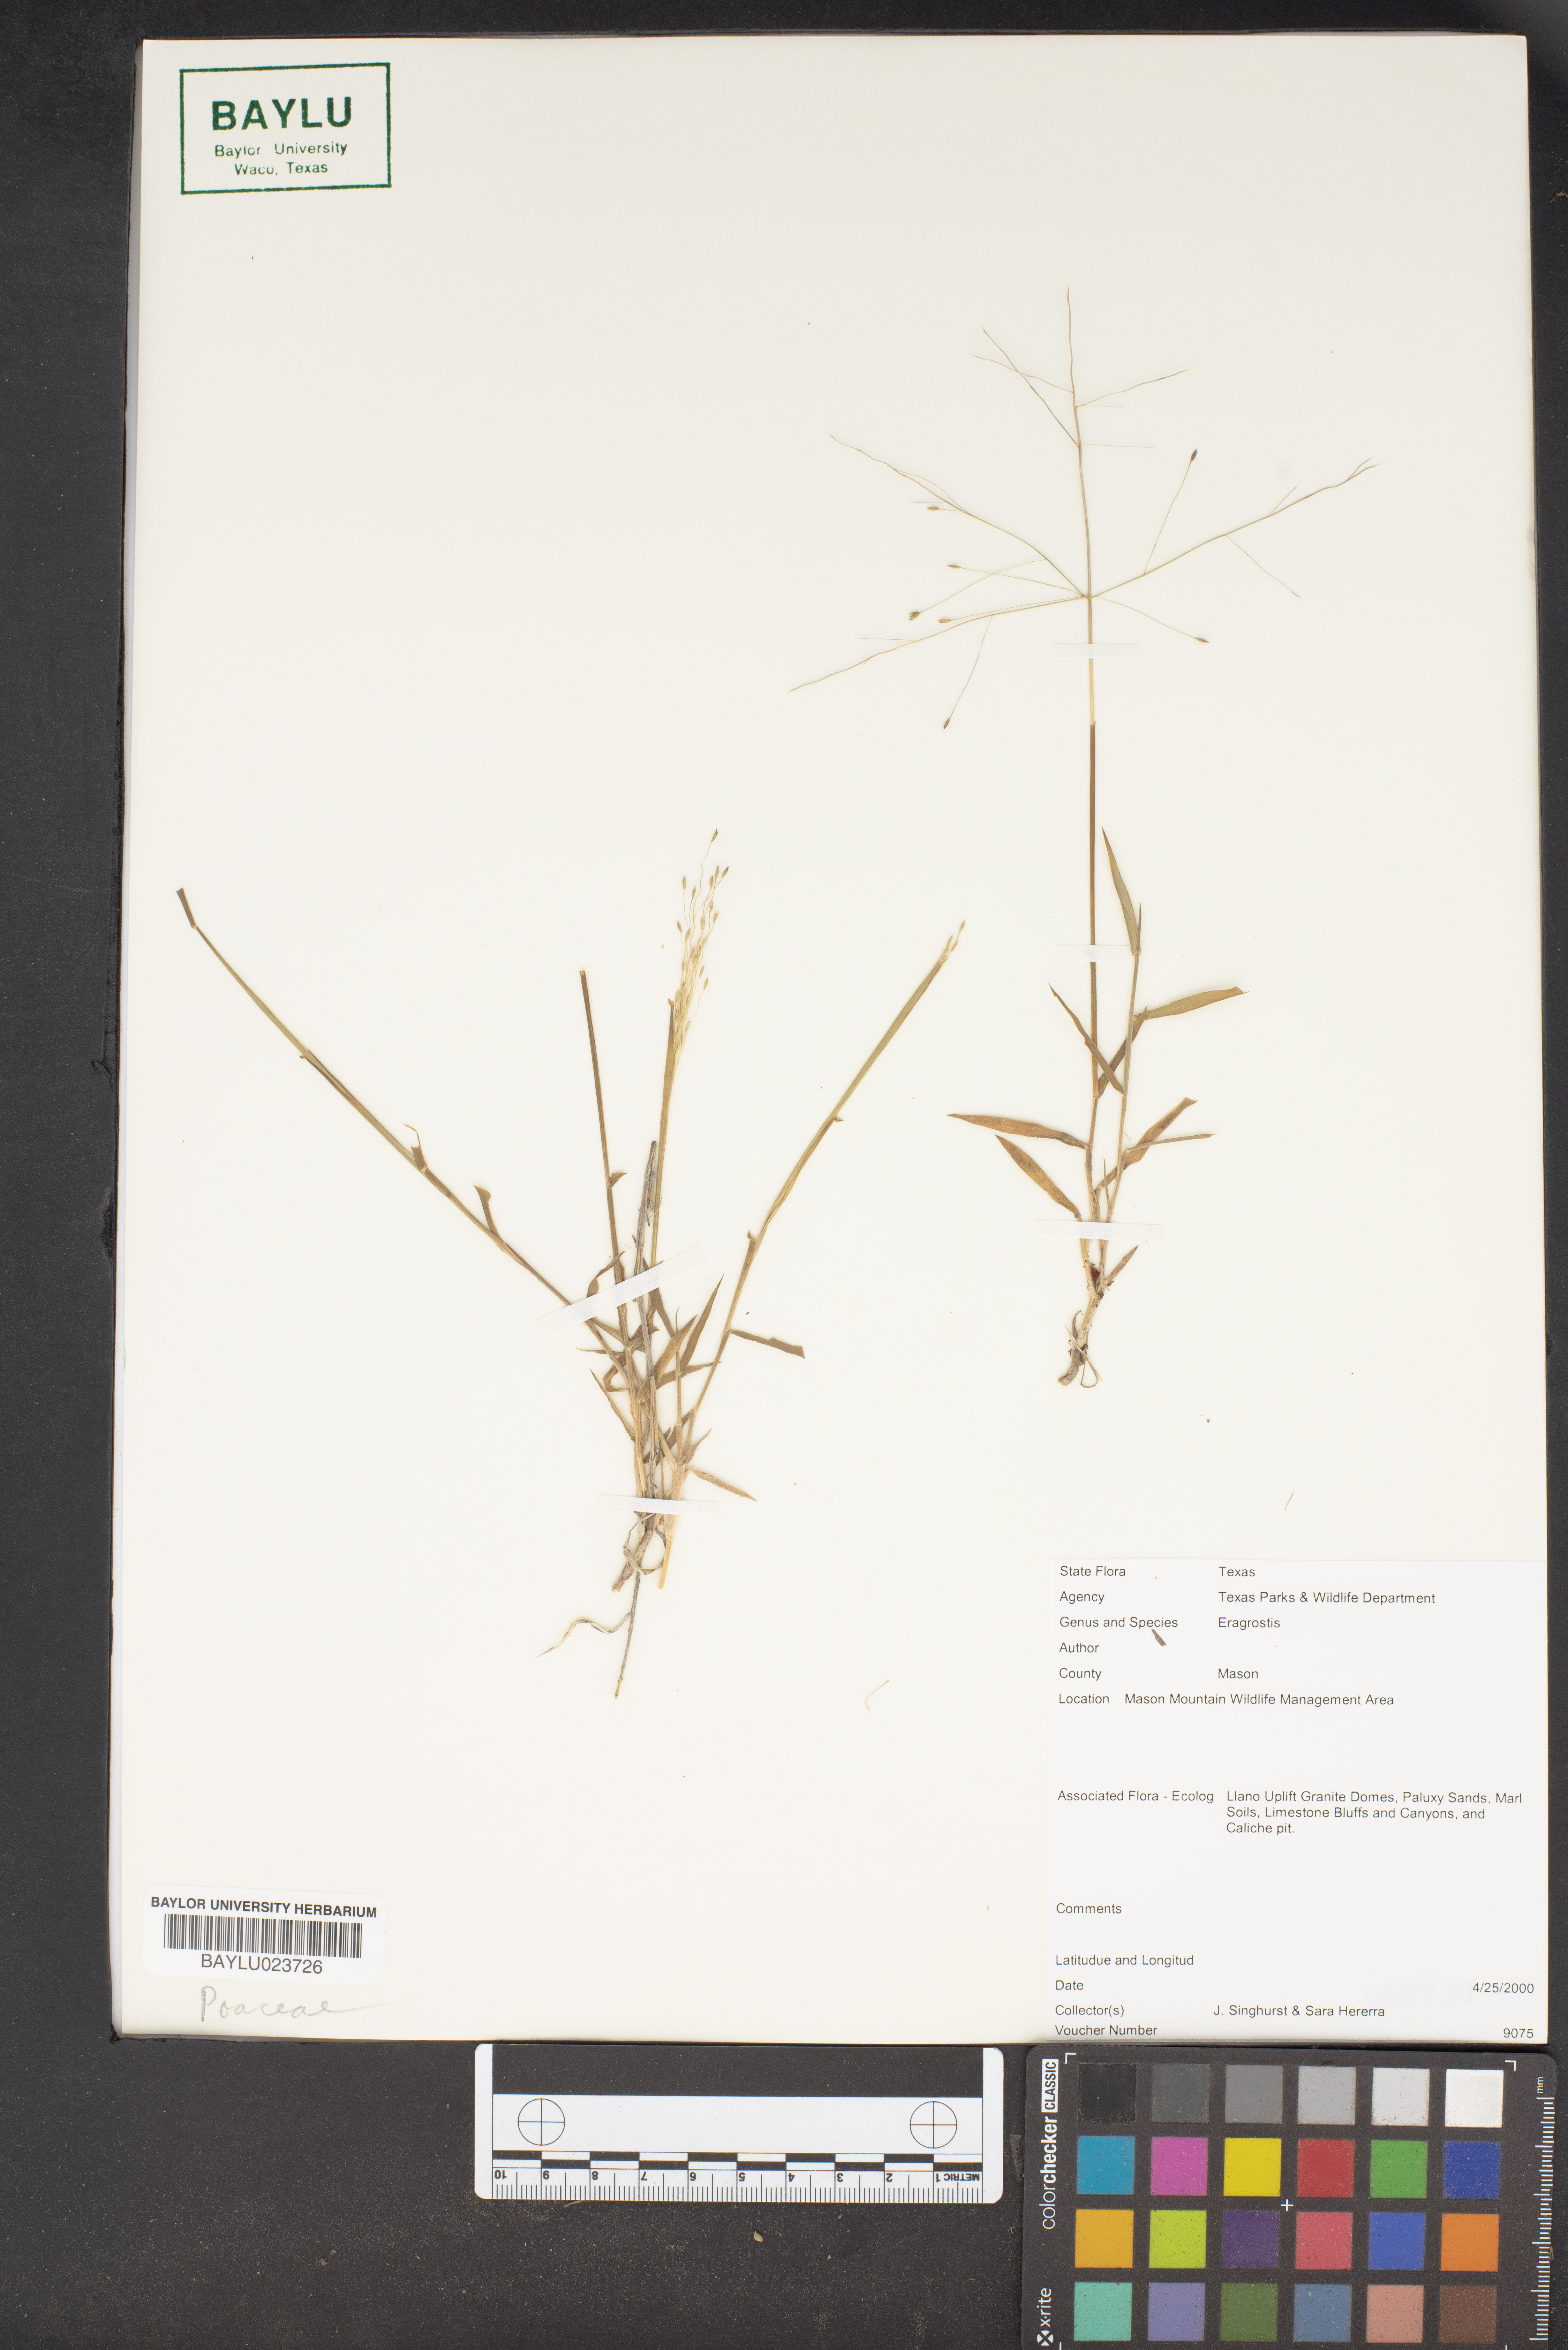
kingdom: Plantae
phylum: Tracheophyta
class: Liliopsida
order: Poales
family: Poaceae
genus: Eragrostis
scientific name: Eragrostis
